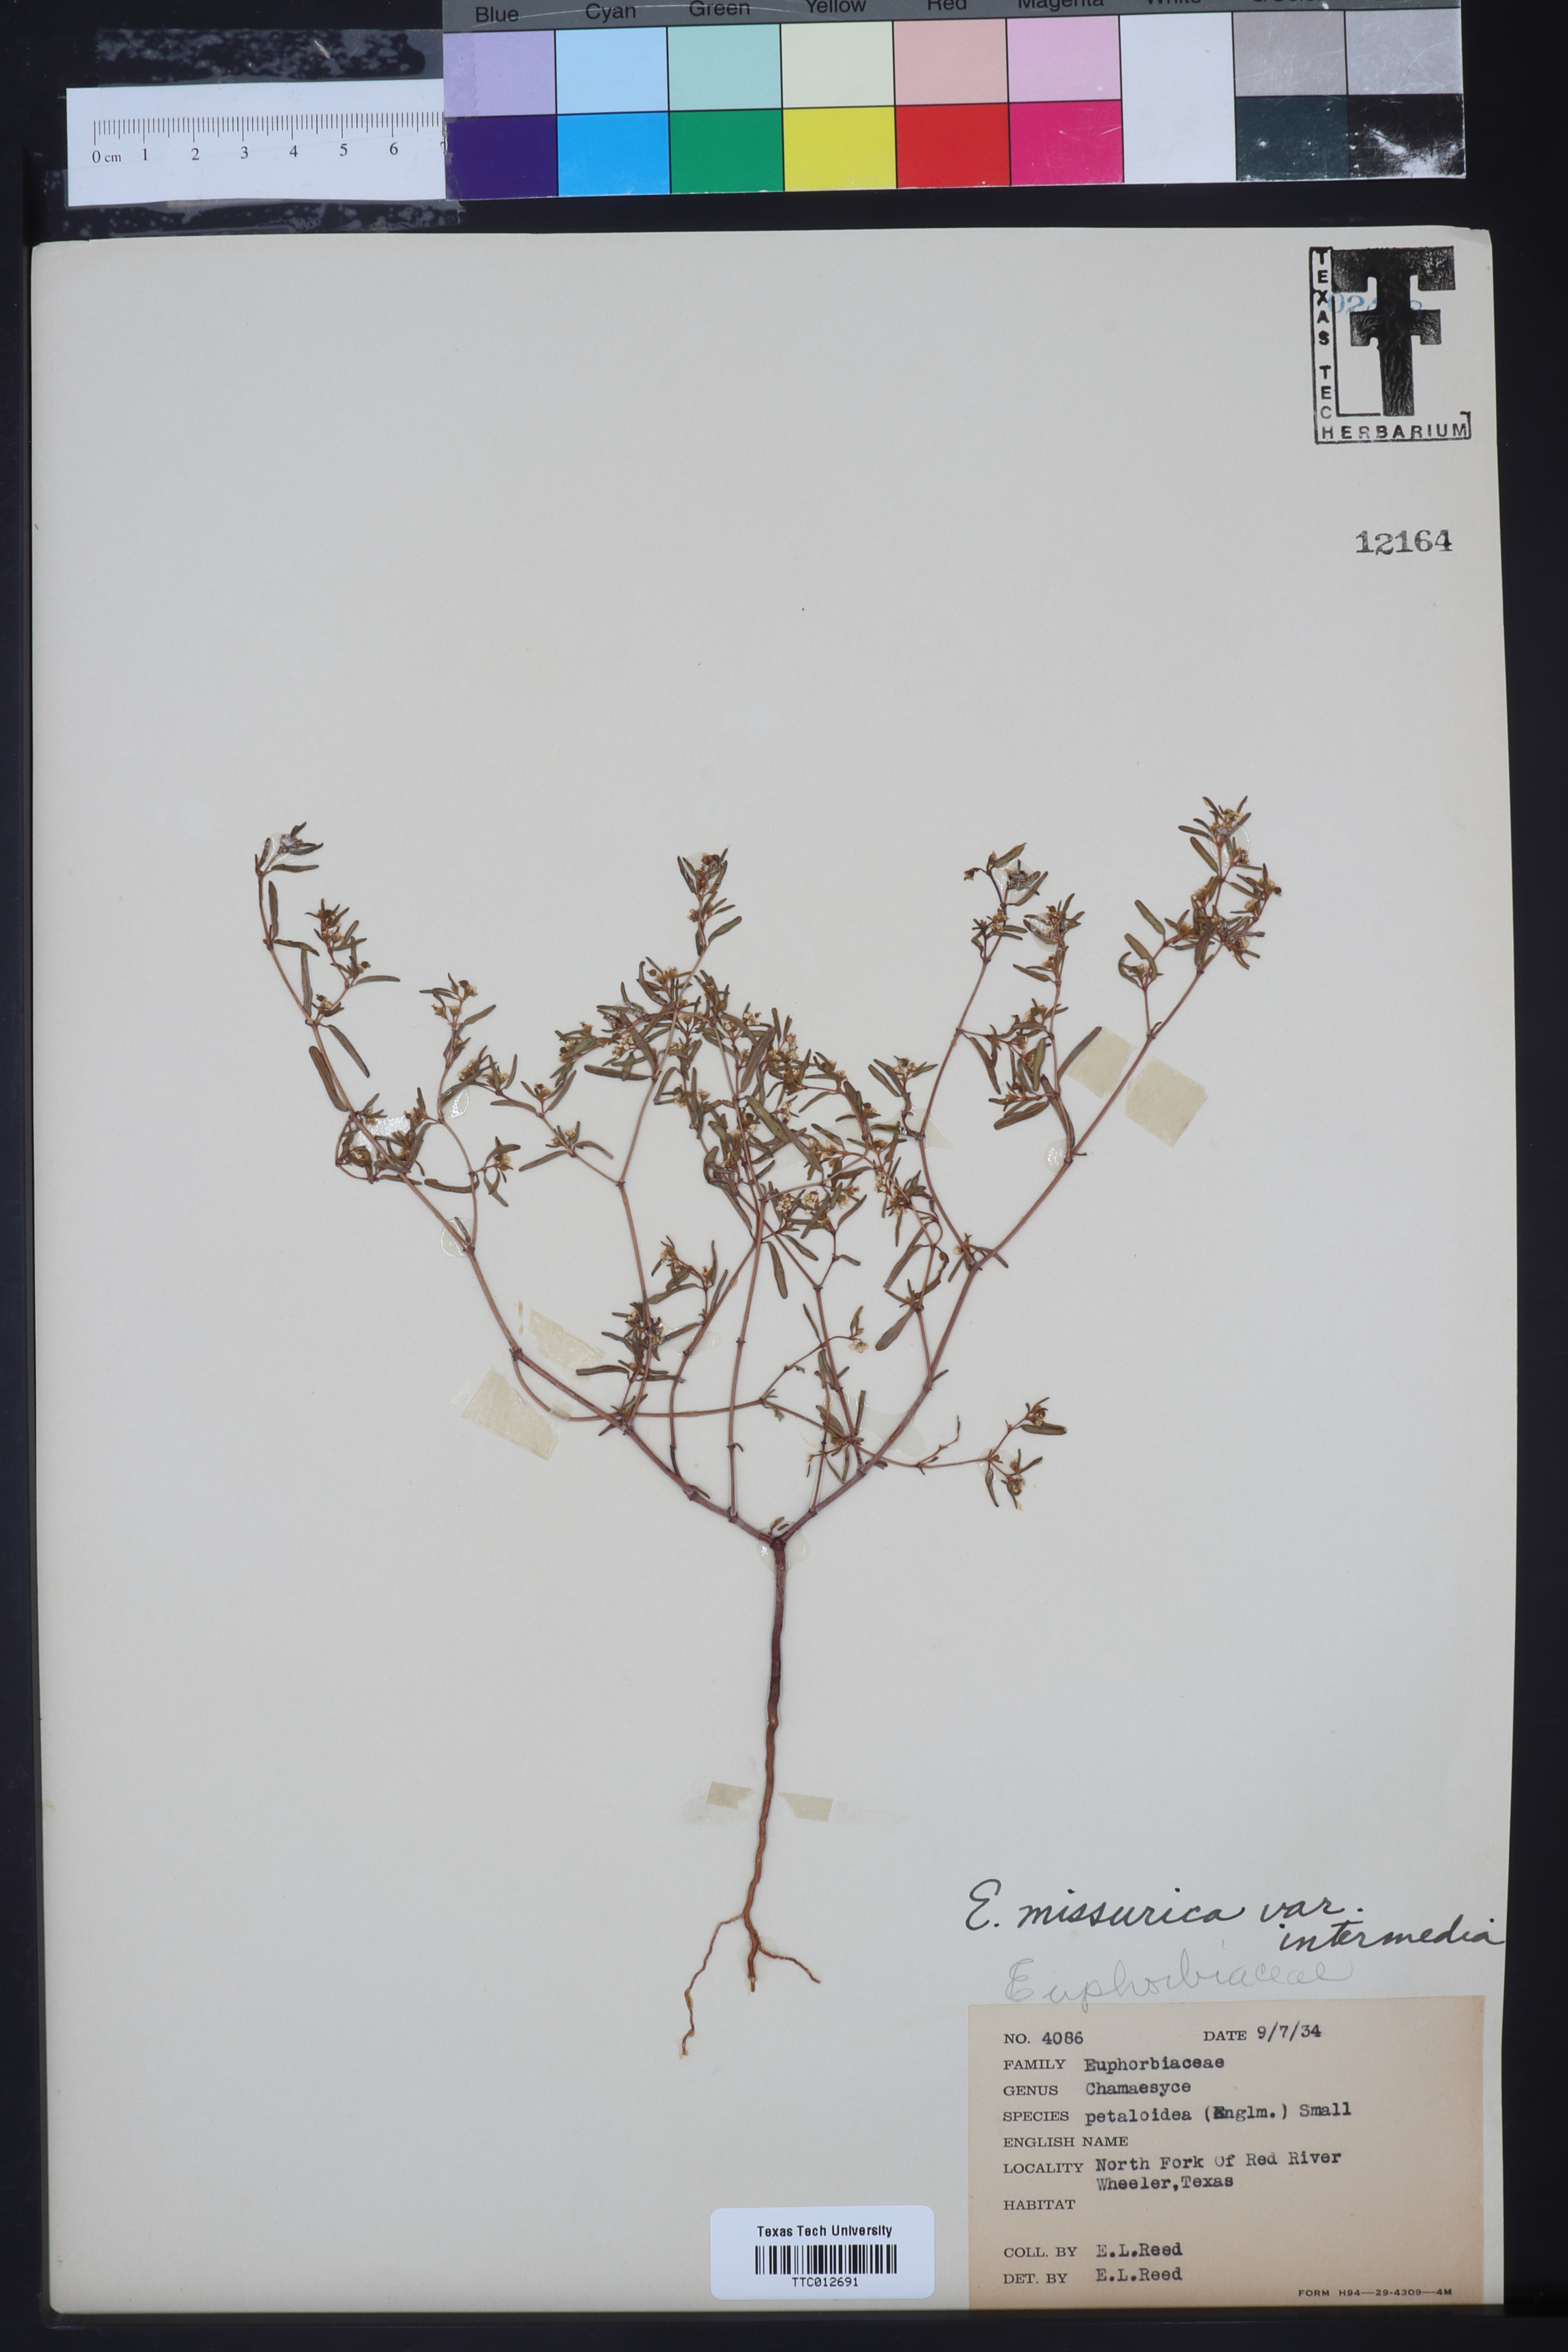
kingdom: Plantae
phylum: Tracheophyta
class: Magnoliopsida
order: Malpighiales
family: Euphorbiaceae
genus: Euphorbia
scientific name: Euphorbia hexagona
